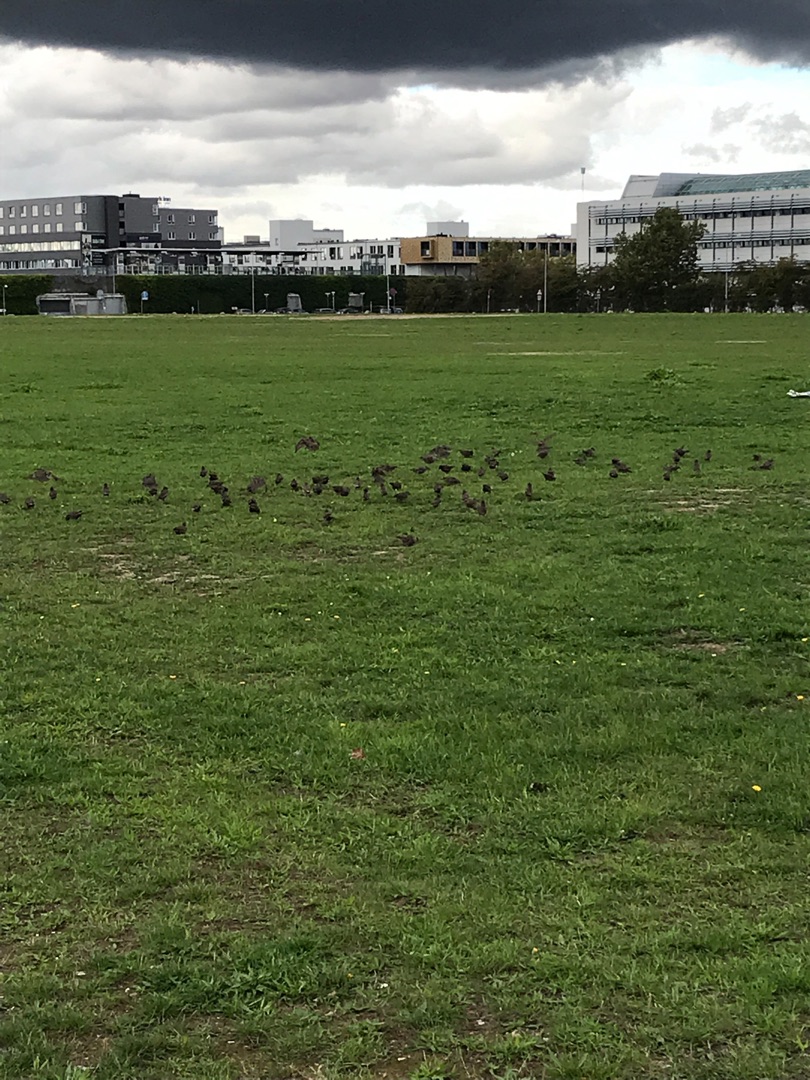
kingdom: Animalia
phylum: Chordata
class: Aves
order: Passeriformes
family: Sturnidae
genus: Sturnus
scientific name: Sturnus vulgaris
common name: Stær
